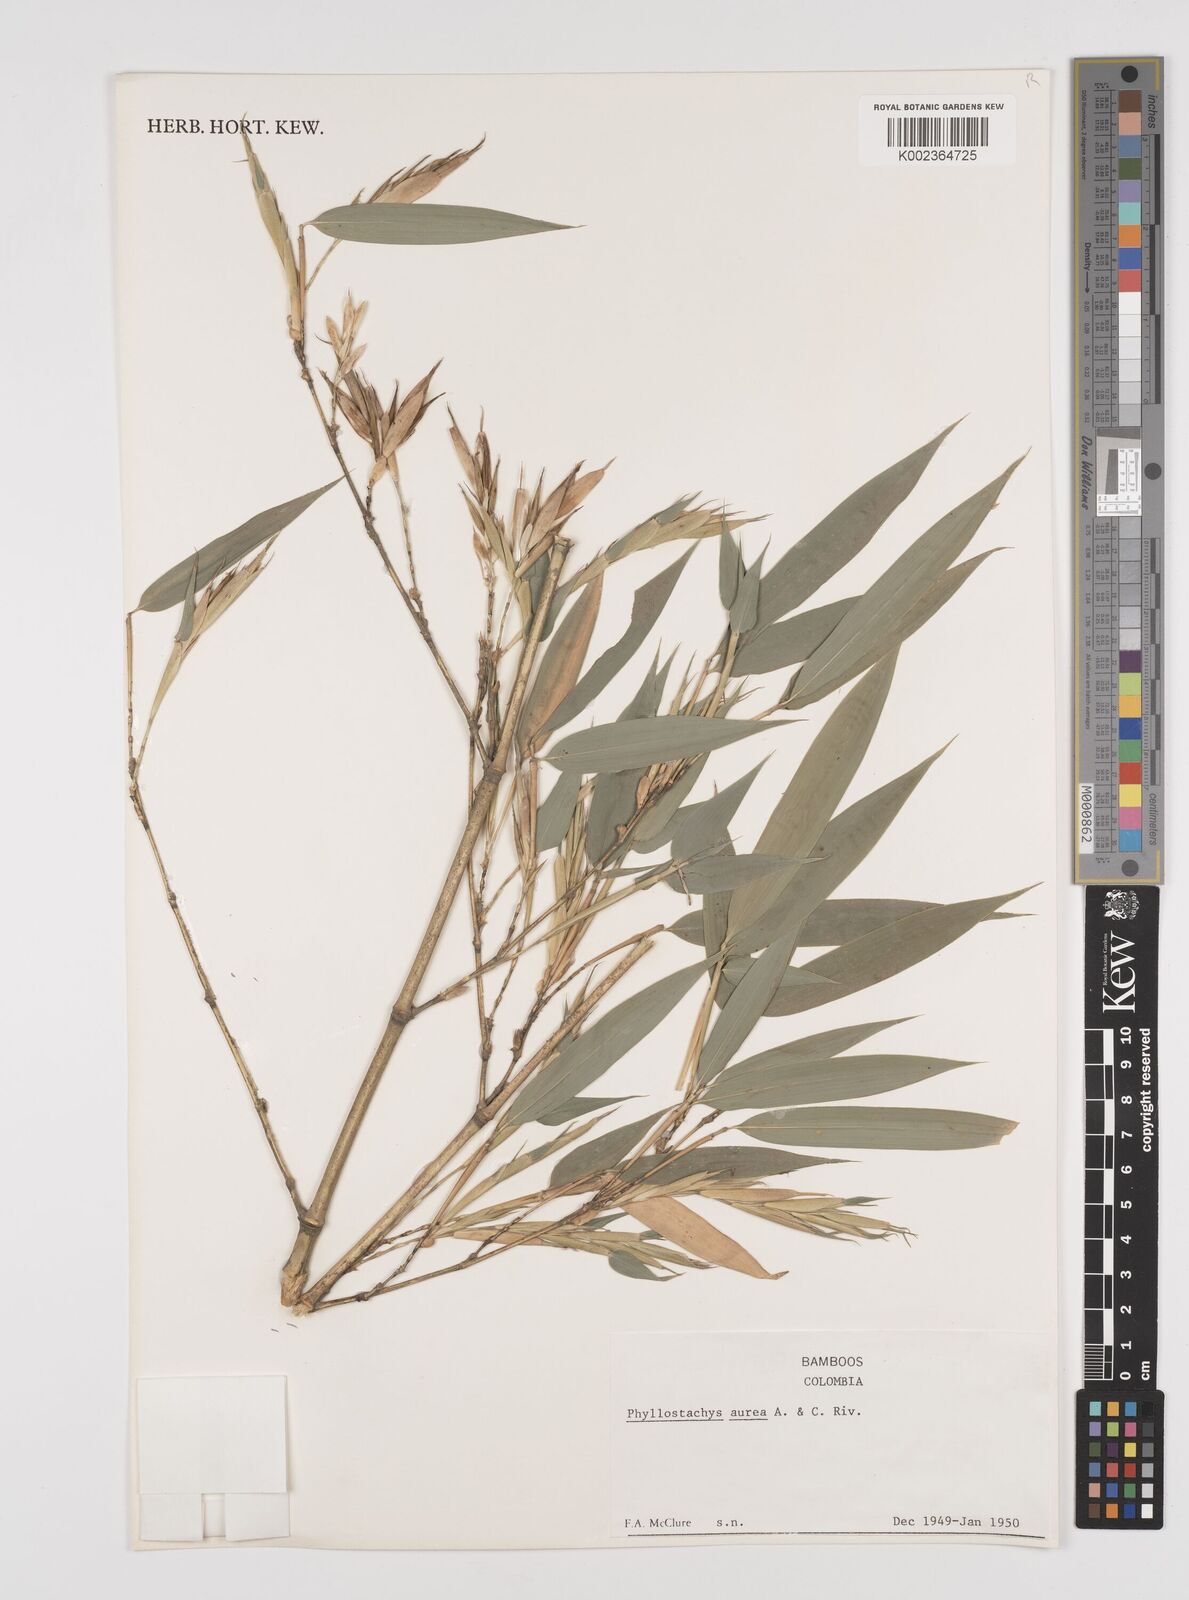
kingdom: Plantae
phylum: Tracheophyta
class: Liliopsida
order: Poales
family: Poaceae
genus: Phyllostachys
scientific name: Phyllostachys aurea
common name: Golden bamboo
